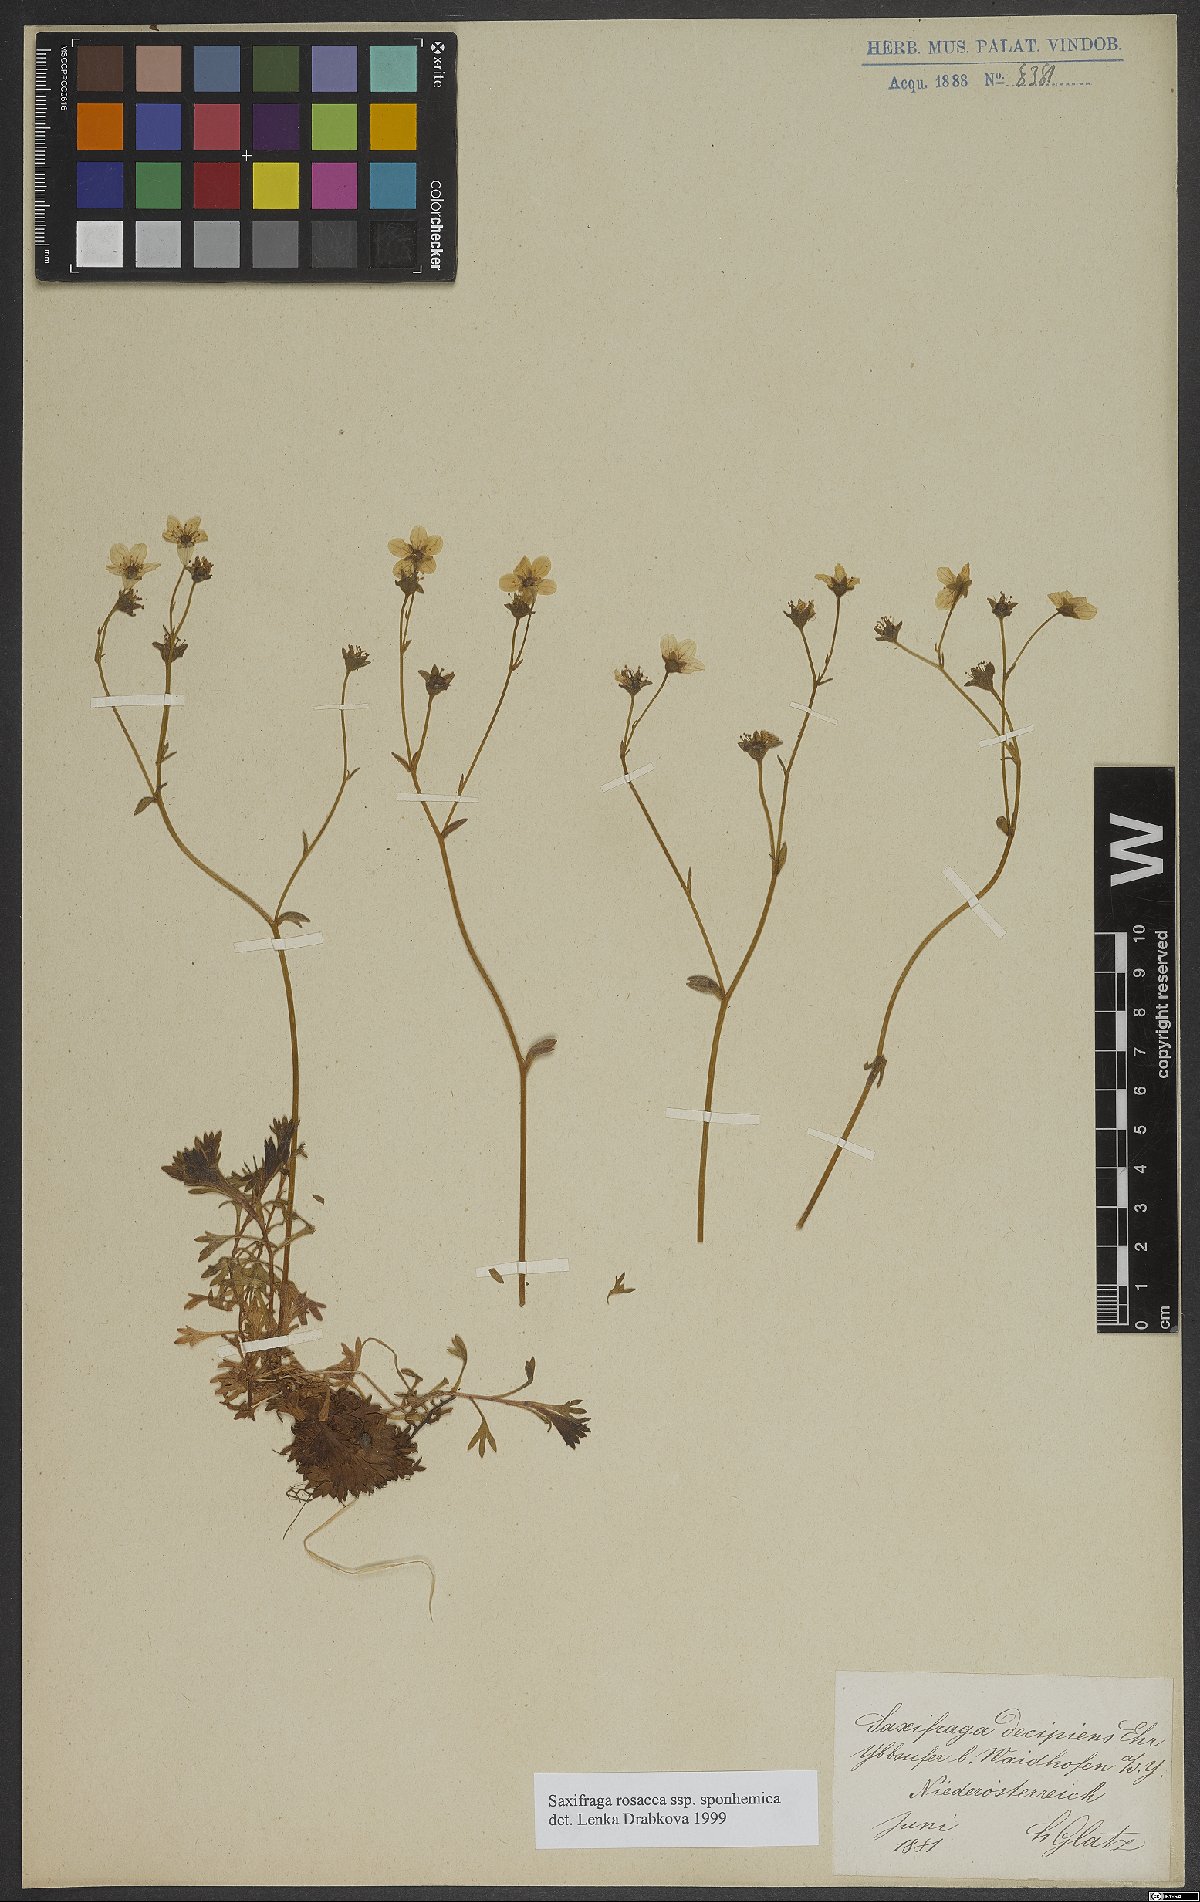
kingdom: Plantae
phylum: Tracheophyta
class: Magnoliopsida
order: Saxifragales
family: Saxifragaceae
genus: Saxifraga
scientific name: Saxifraga rosacea
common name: Irish saxifrage
